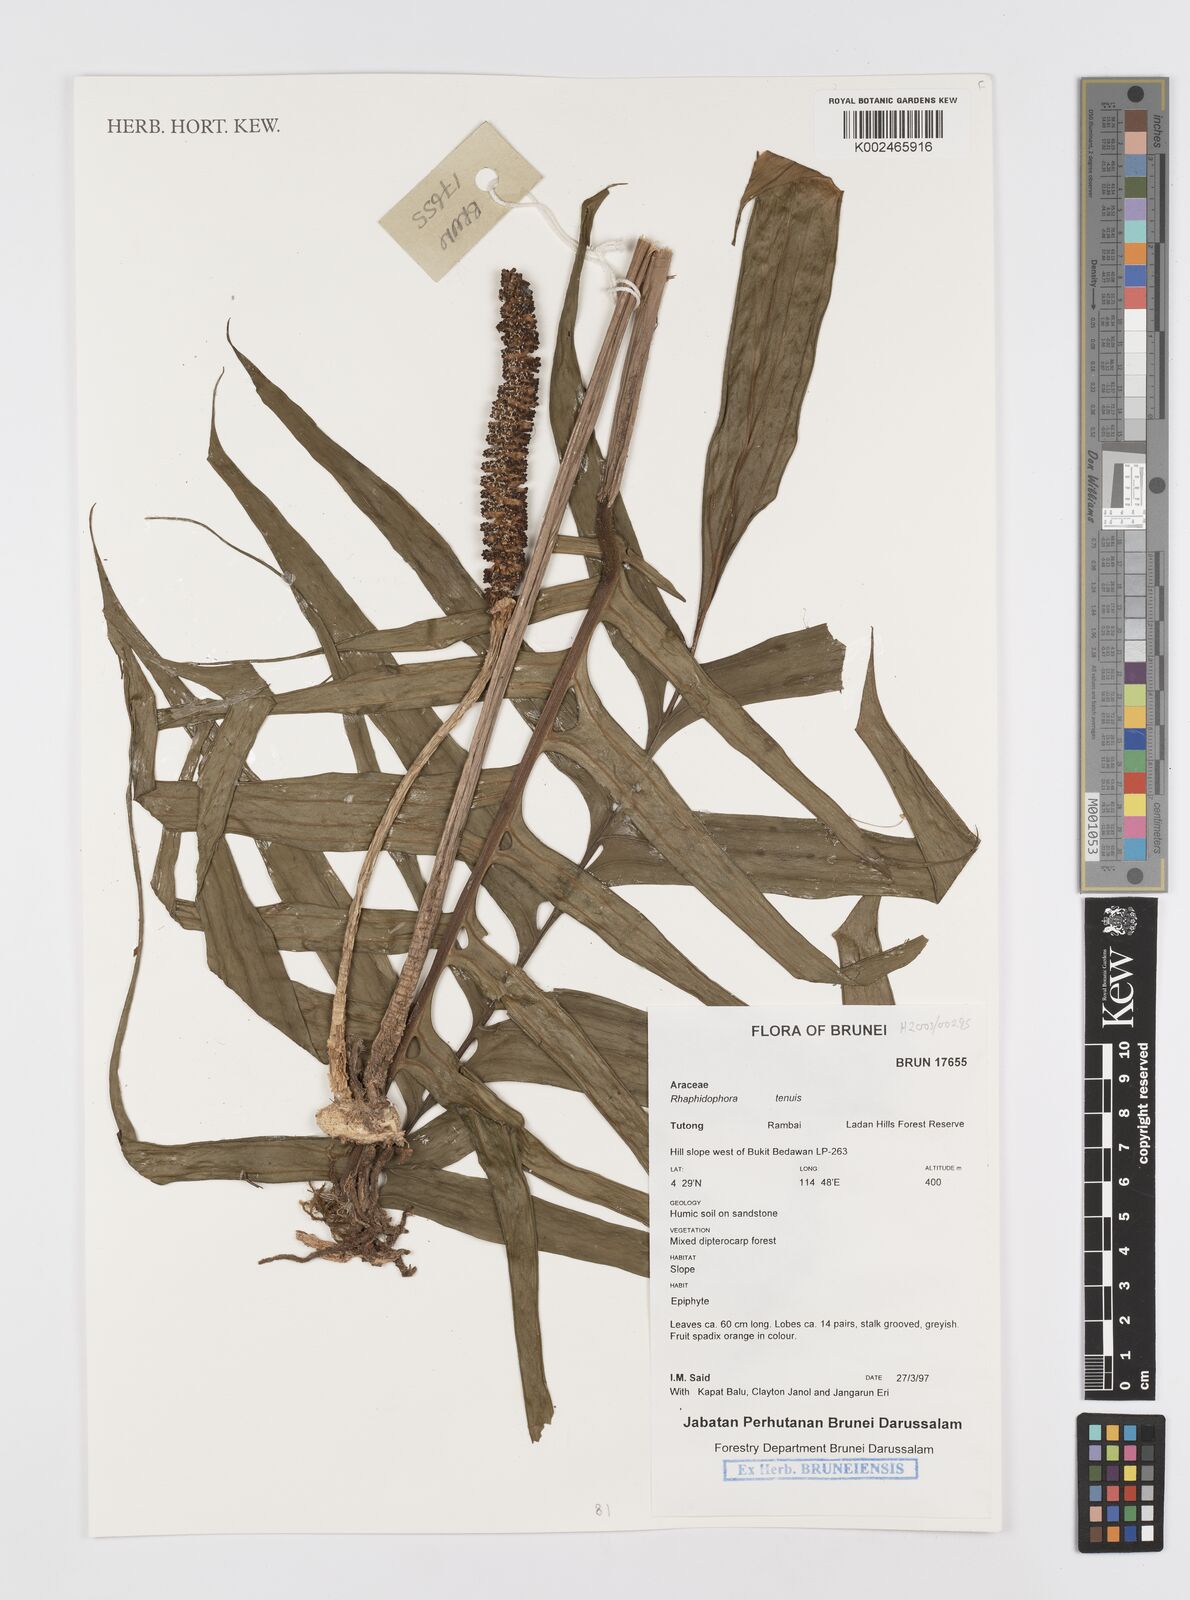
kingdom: Plantae
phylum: Tracheophyta
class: Liliopsida
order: Alismatales
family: Araceae
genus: Rhaphidophora
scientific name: Rhaphidophora korthalsii
